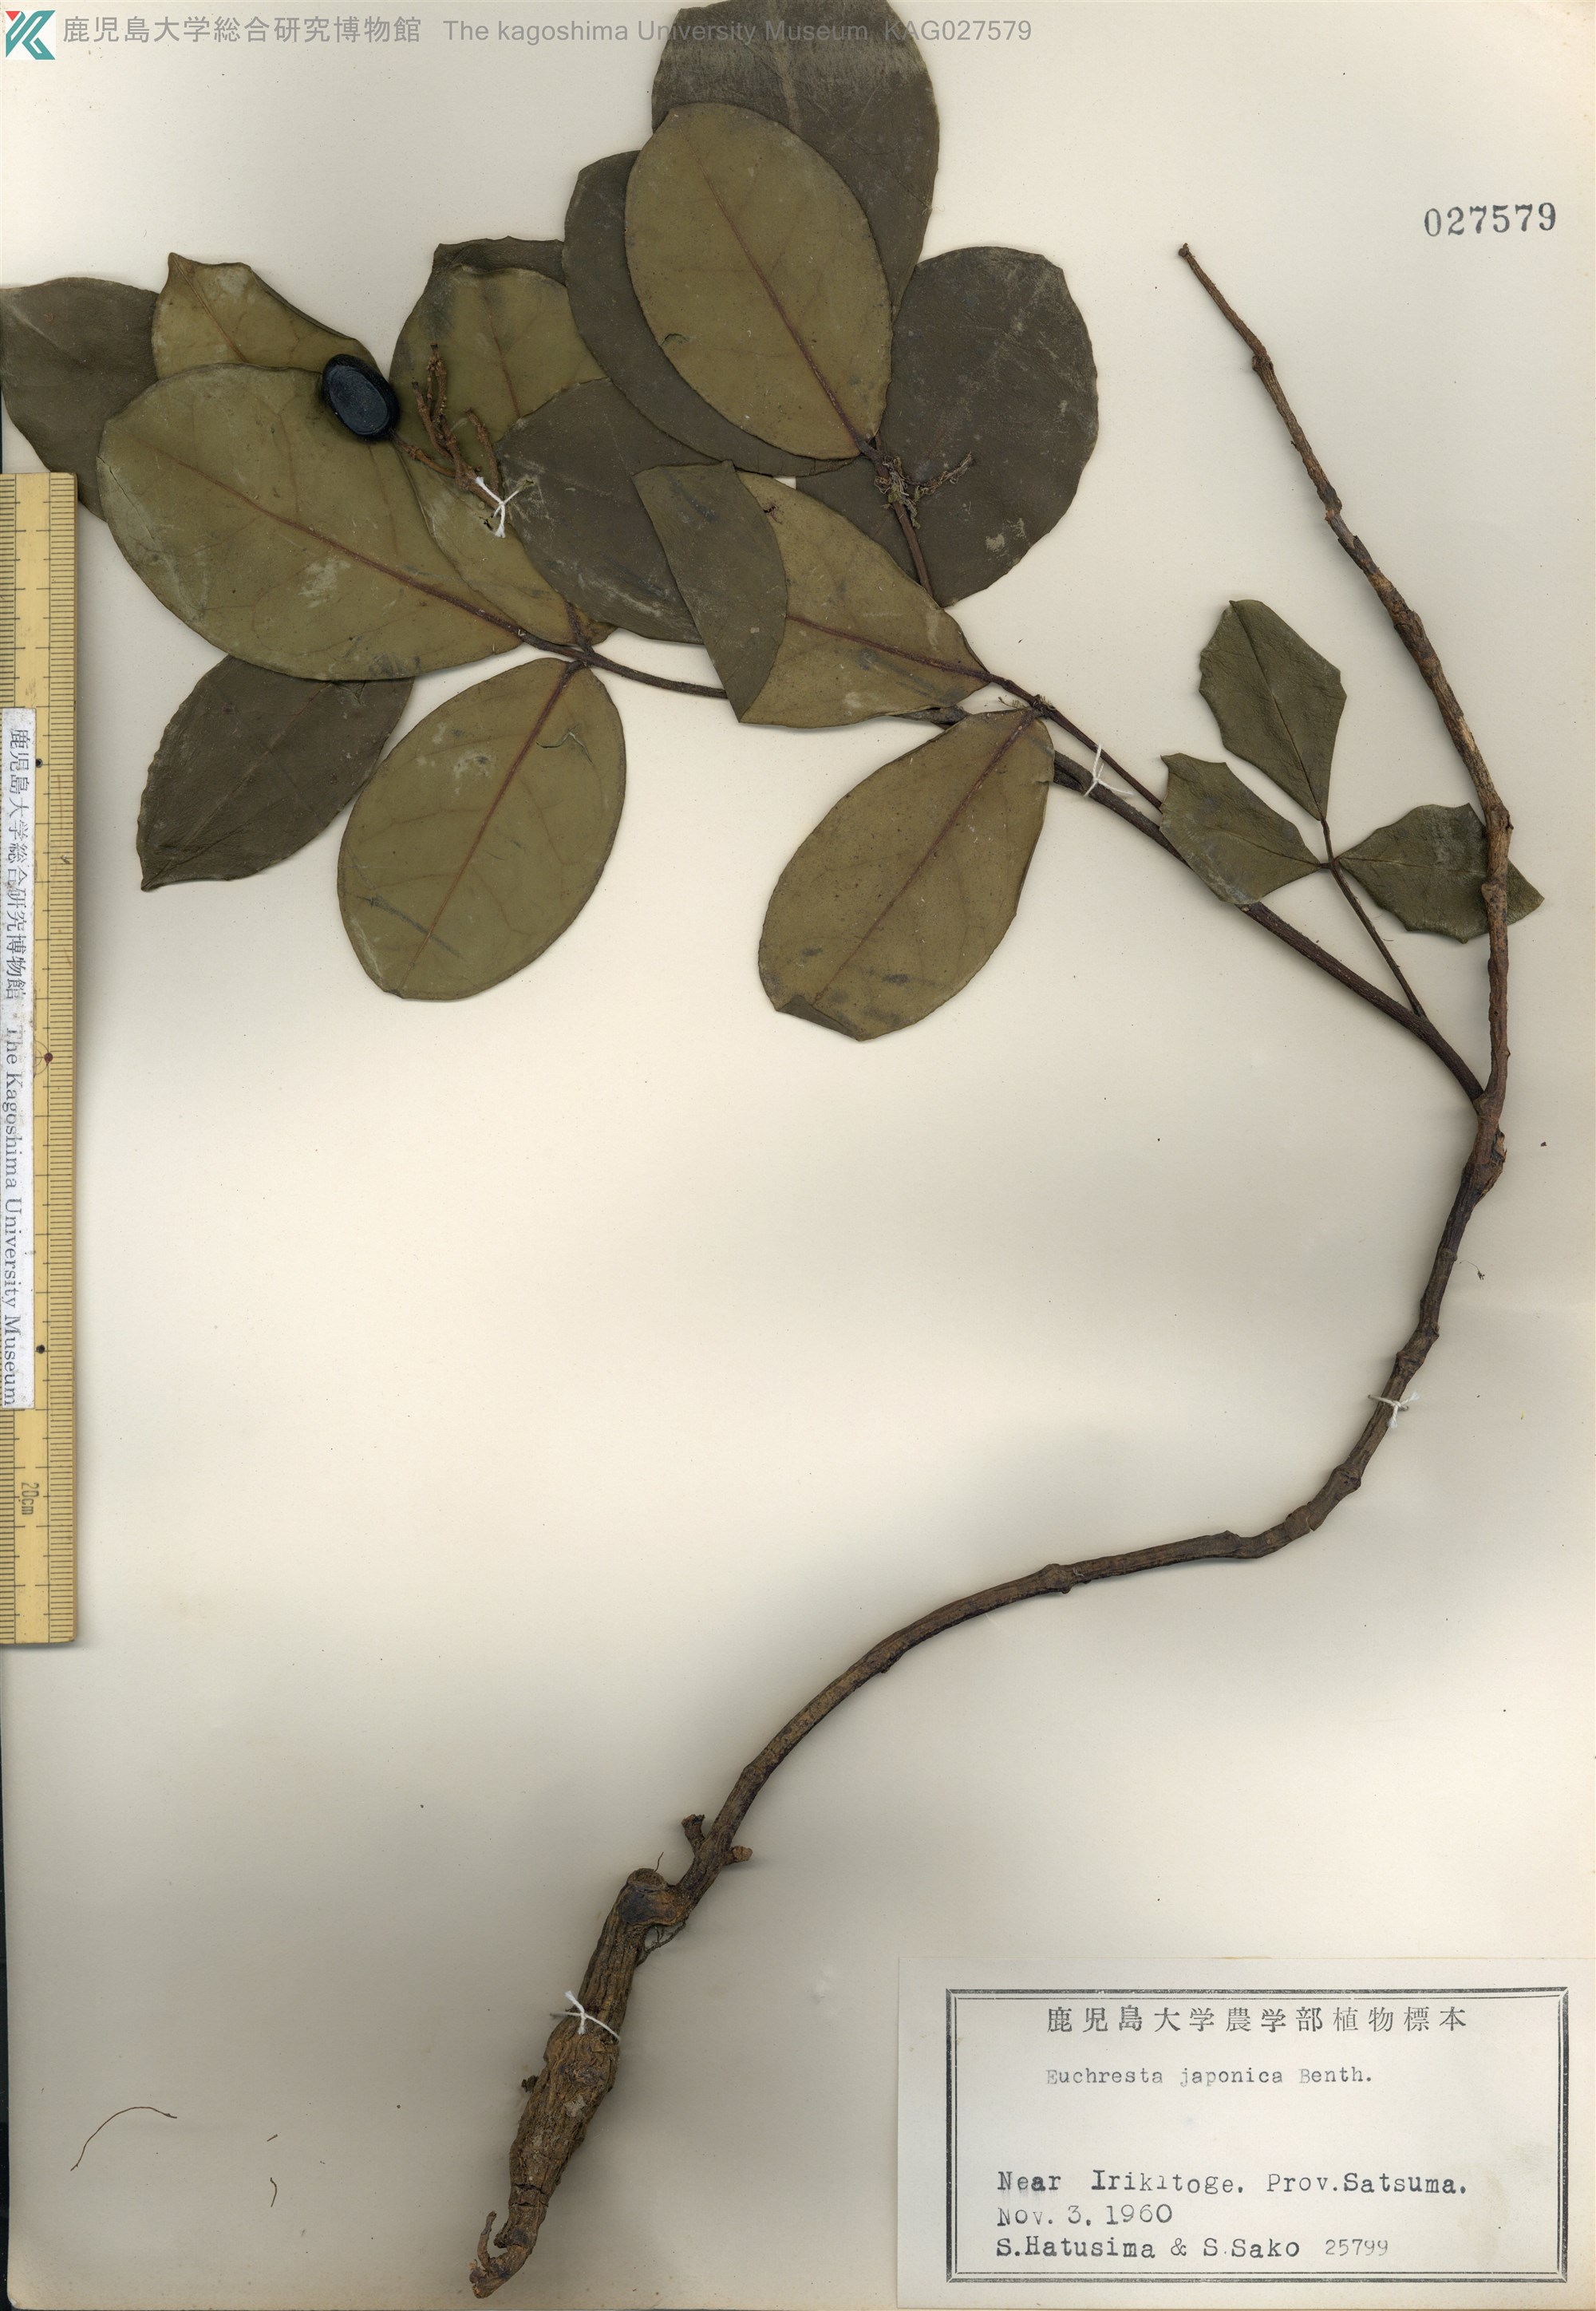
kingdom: Plantae
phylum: Tracheophyta
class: Magnoliopsida
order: Fabales
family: Fabaceae
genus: Euchresta
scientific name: Euchresta japonica
